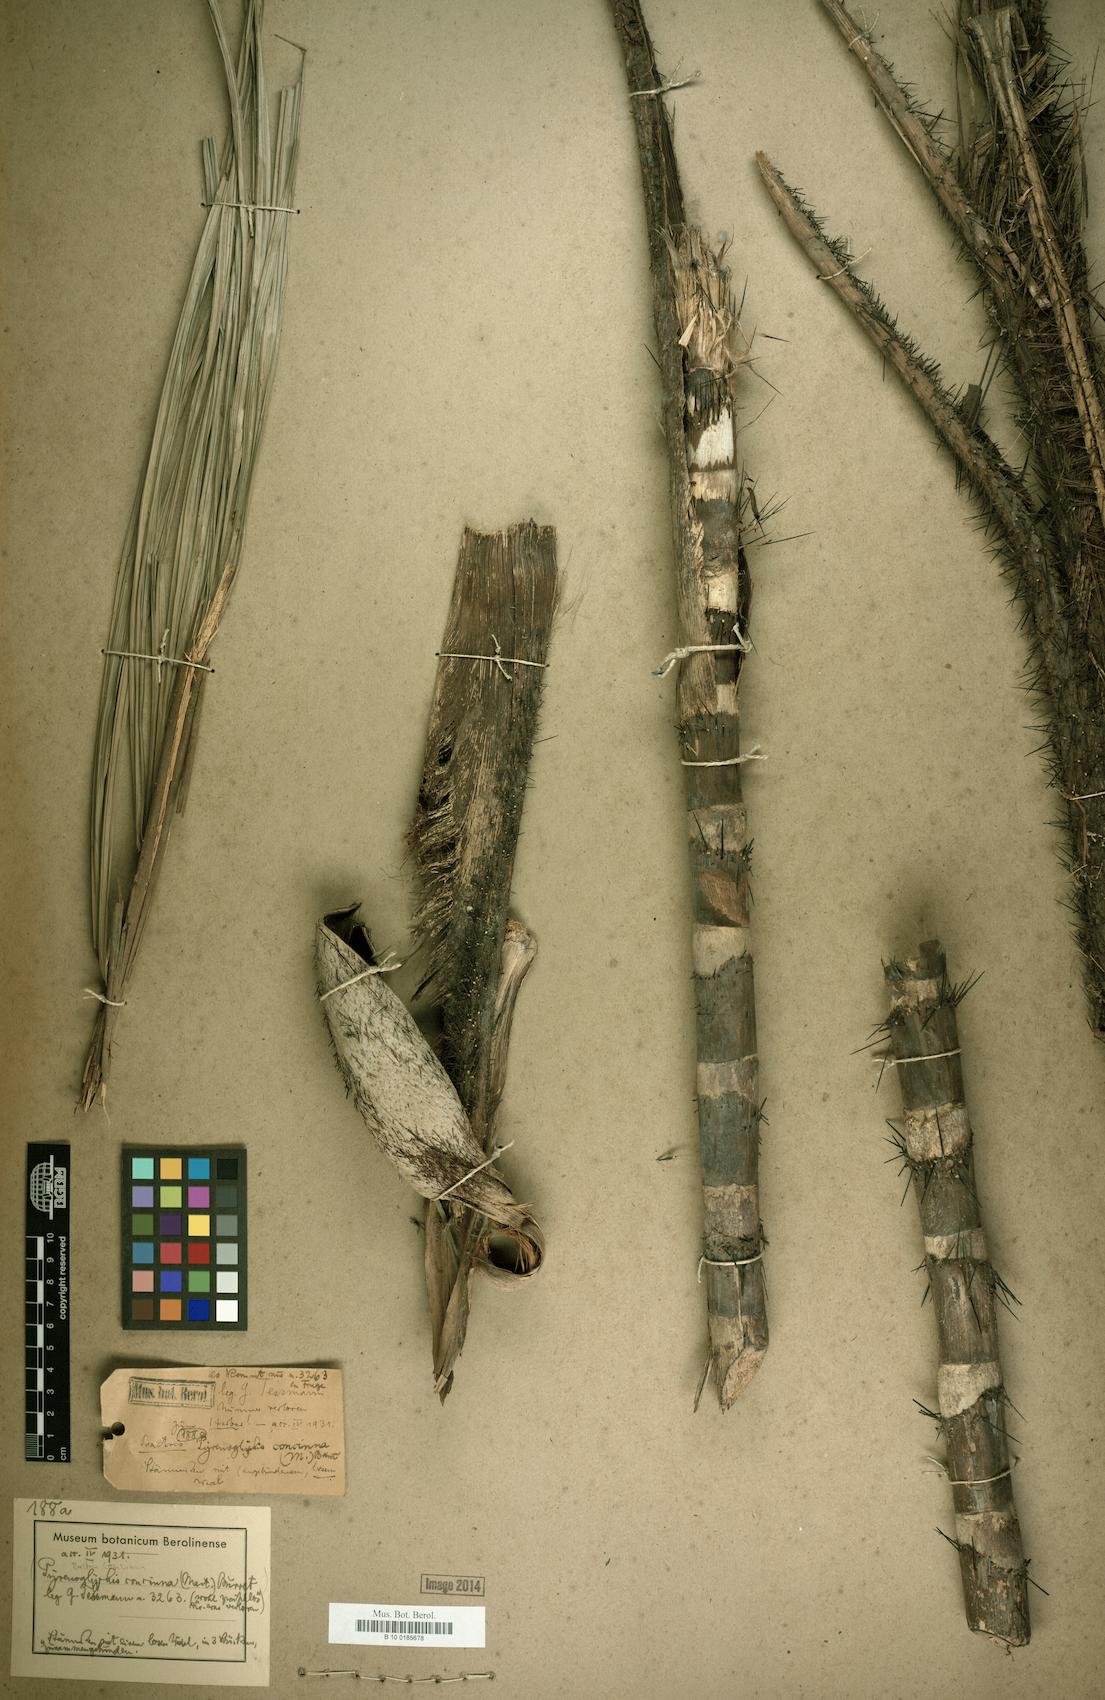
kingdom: Plantae
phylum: Tracheophyta
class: Liliopsida
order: Arecales
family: Arecaceae
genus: Bactris
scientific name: Bactris concinna
